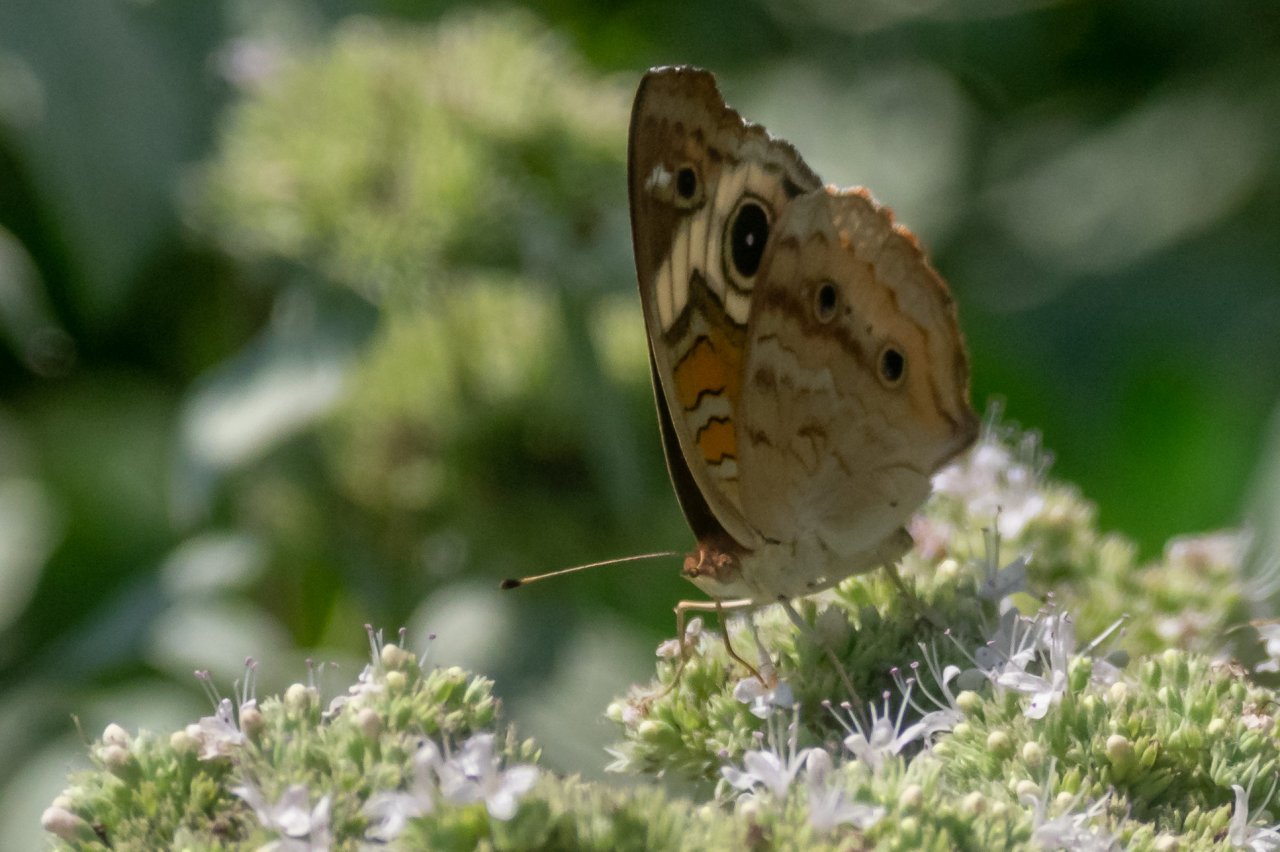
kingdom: Animalia
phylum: Arthropoda
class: Insecta
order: Lepidoptera
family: Nymphalidae
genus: Junonia
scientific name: Junonia coenia
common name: Common Buckeye
